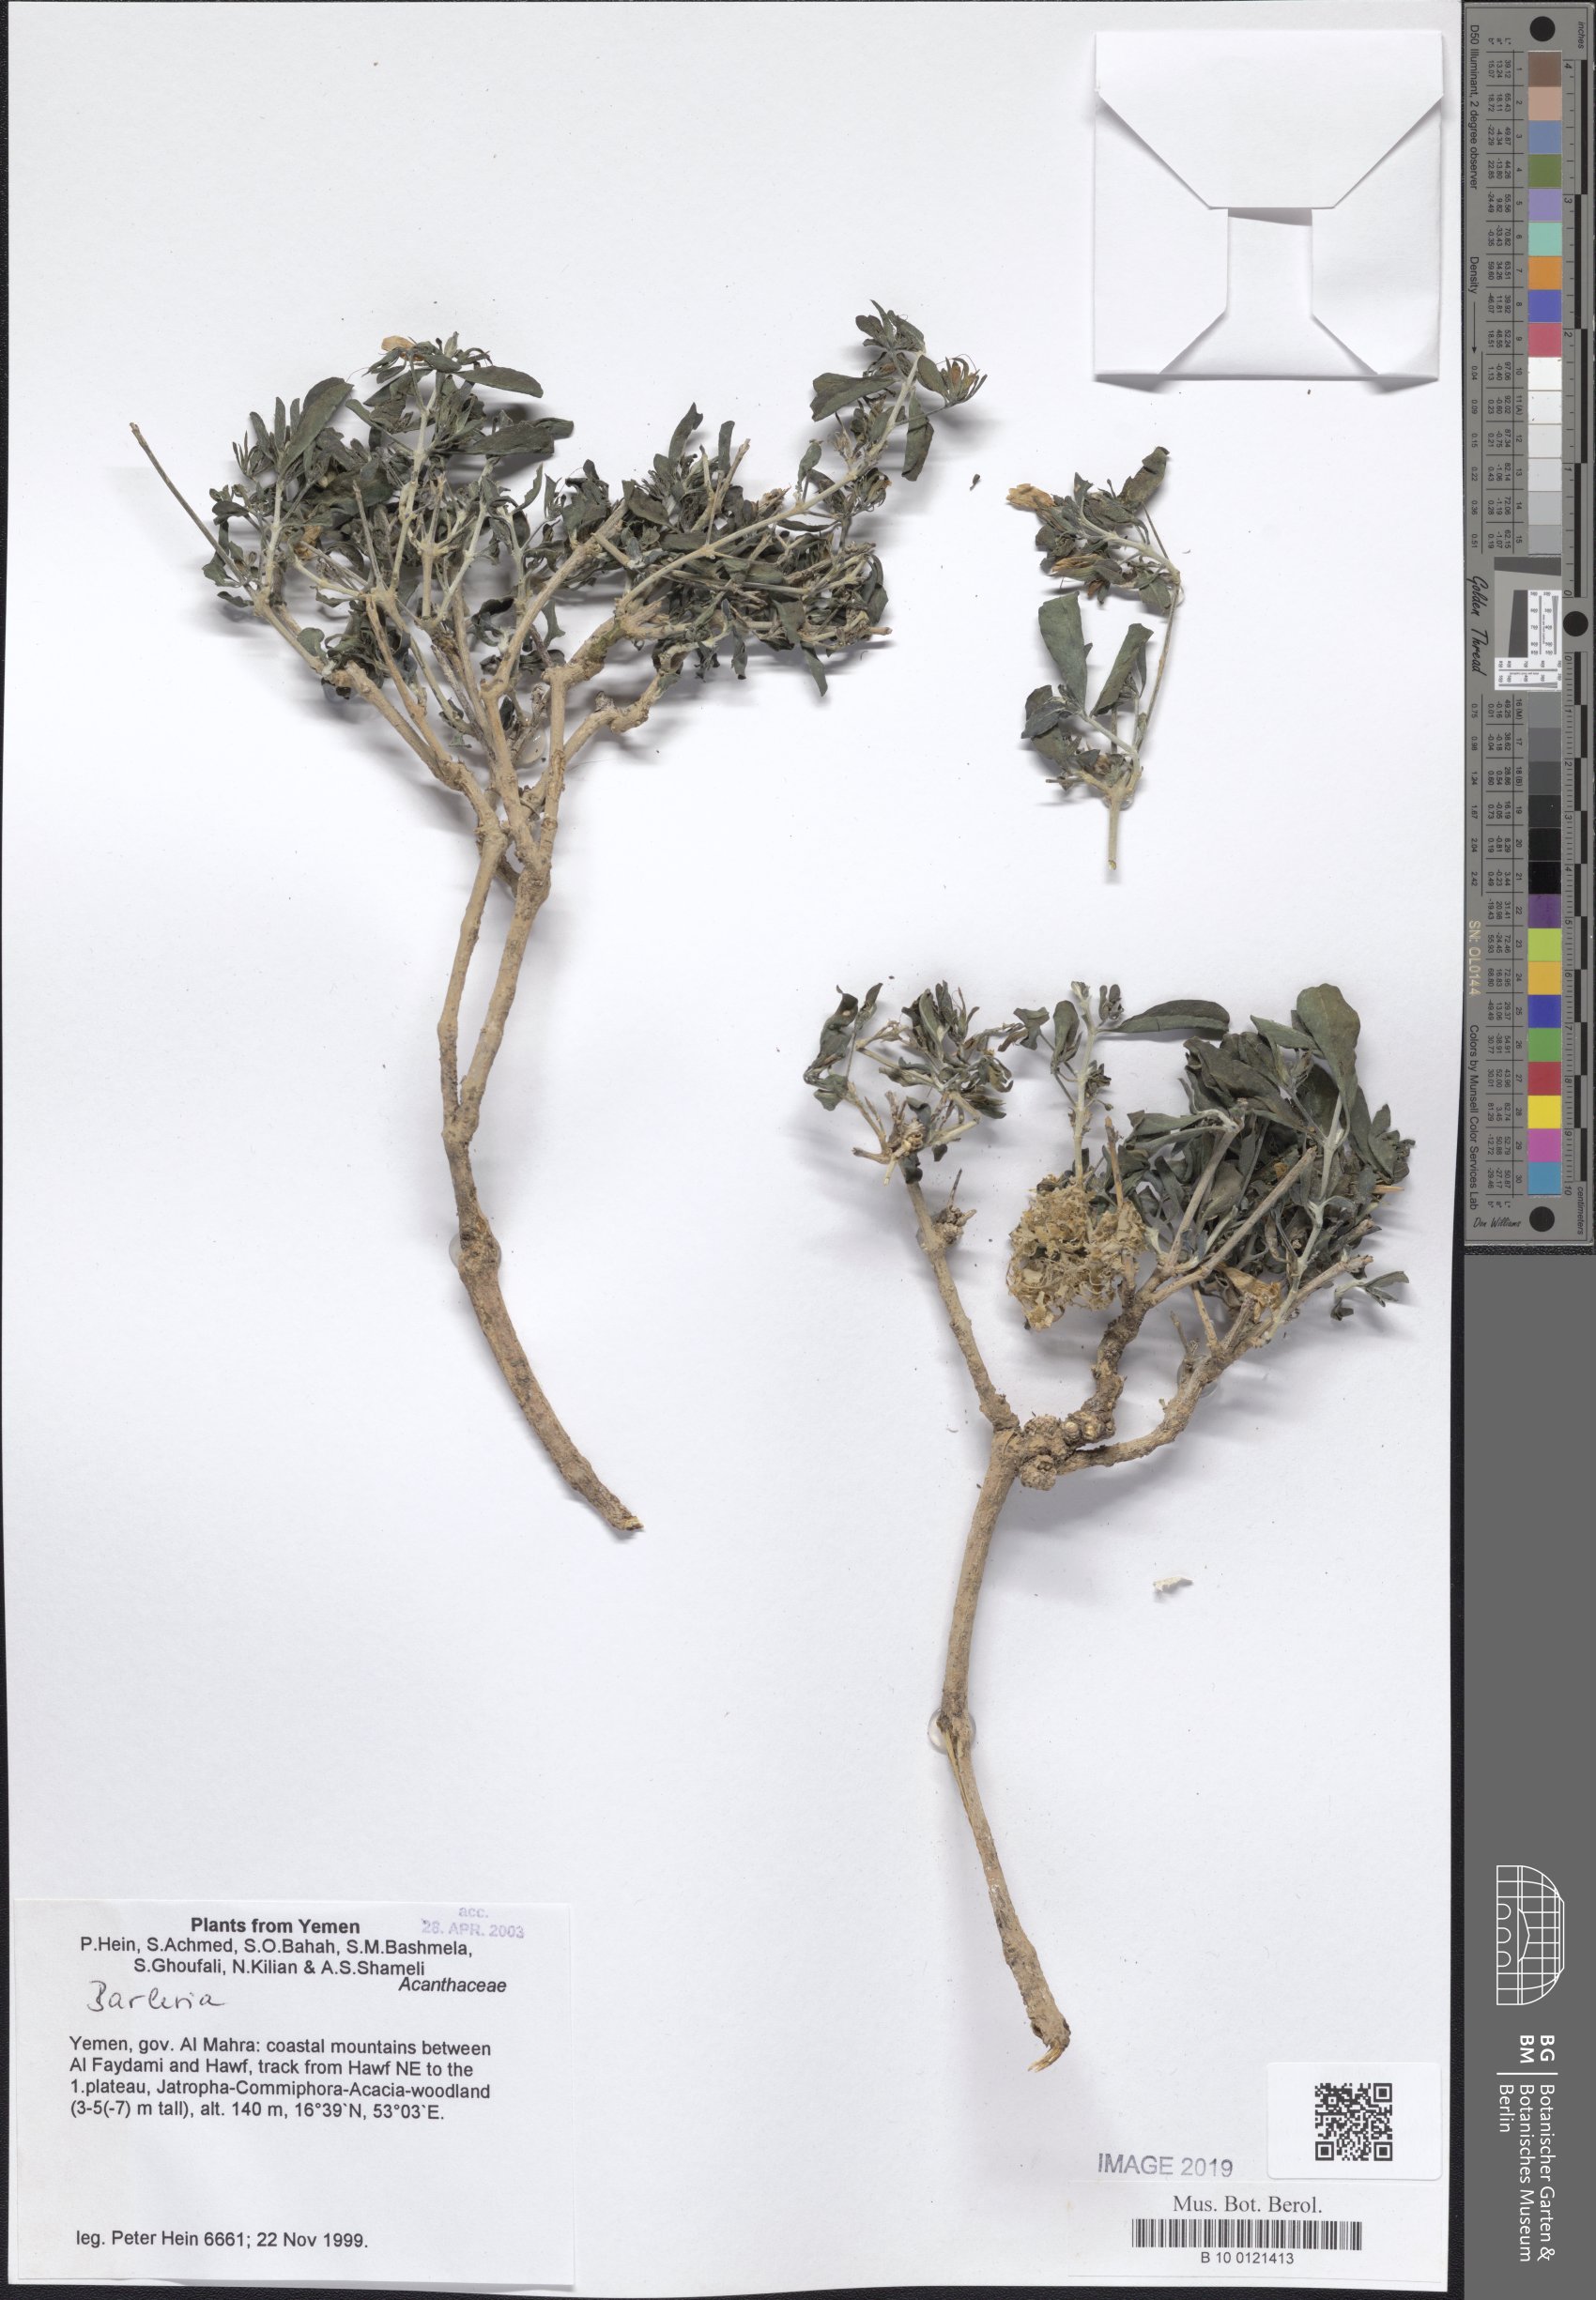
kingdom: Plantae
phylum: Tracheophyta
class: Magnoliopsida
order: Lamiales
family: Acanthaceae
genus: Barleria
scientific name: Barleria
